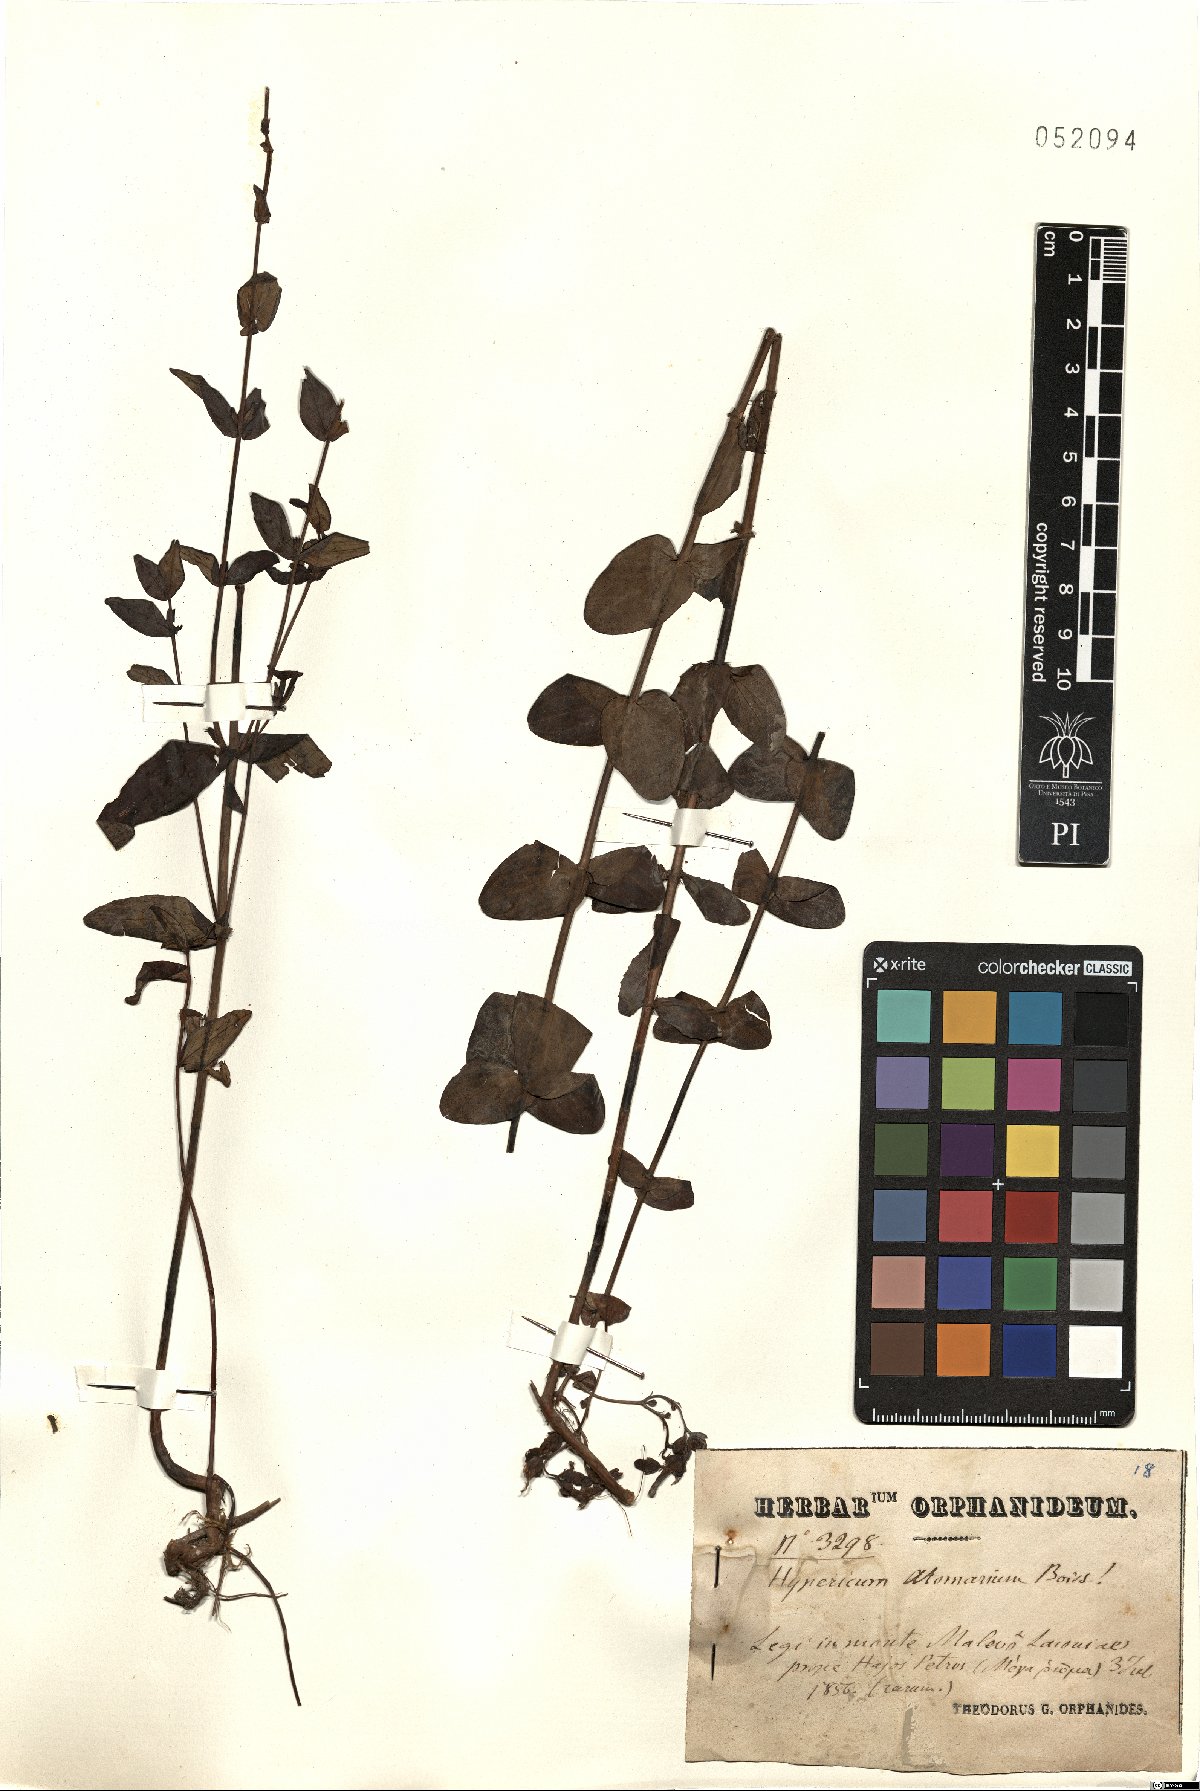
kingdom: Plantae
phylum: Tracheophyta
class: Magnoliopsida
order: Malpighiales
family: Hypericaceae
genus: Hypericum
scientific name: Hypericum atomarium
